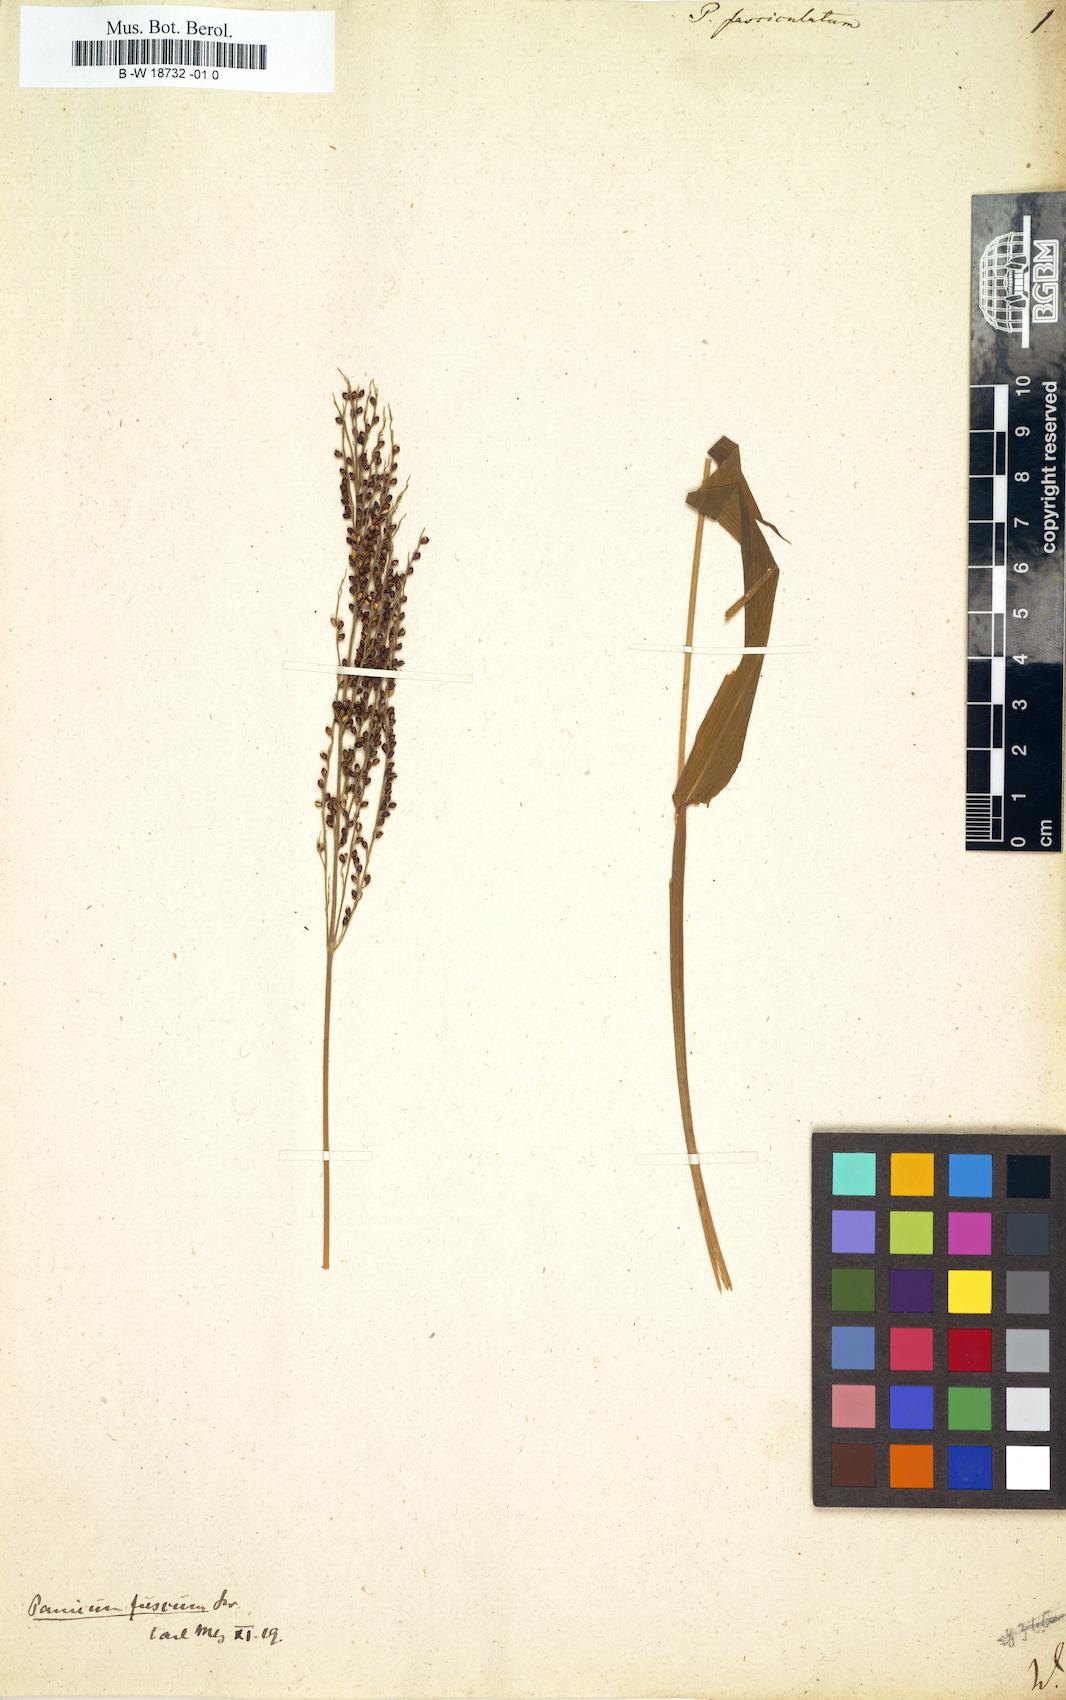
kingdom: Plantae
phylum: Tracheophyta
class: Liliopsida
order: Poales
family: Poaceae
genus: Panicum
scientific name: Panicum fasciculatum
